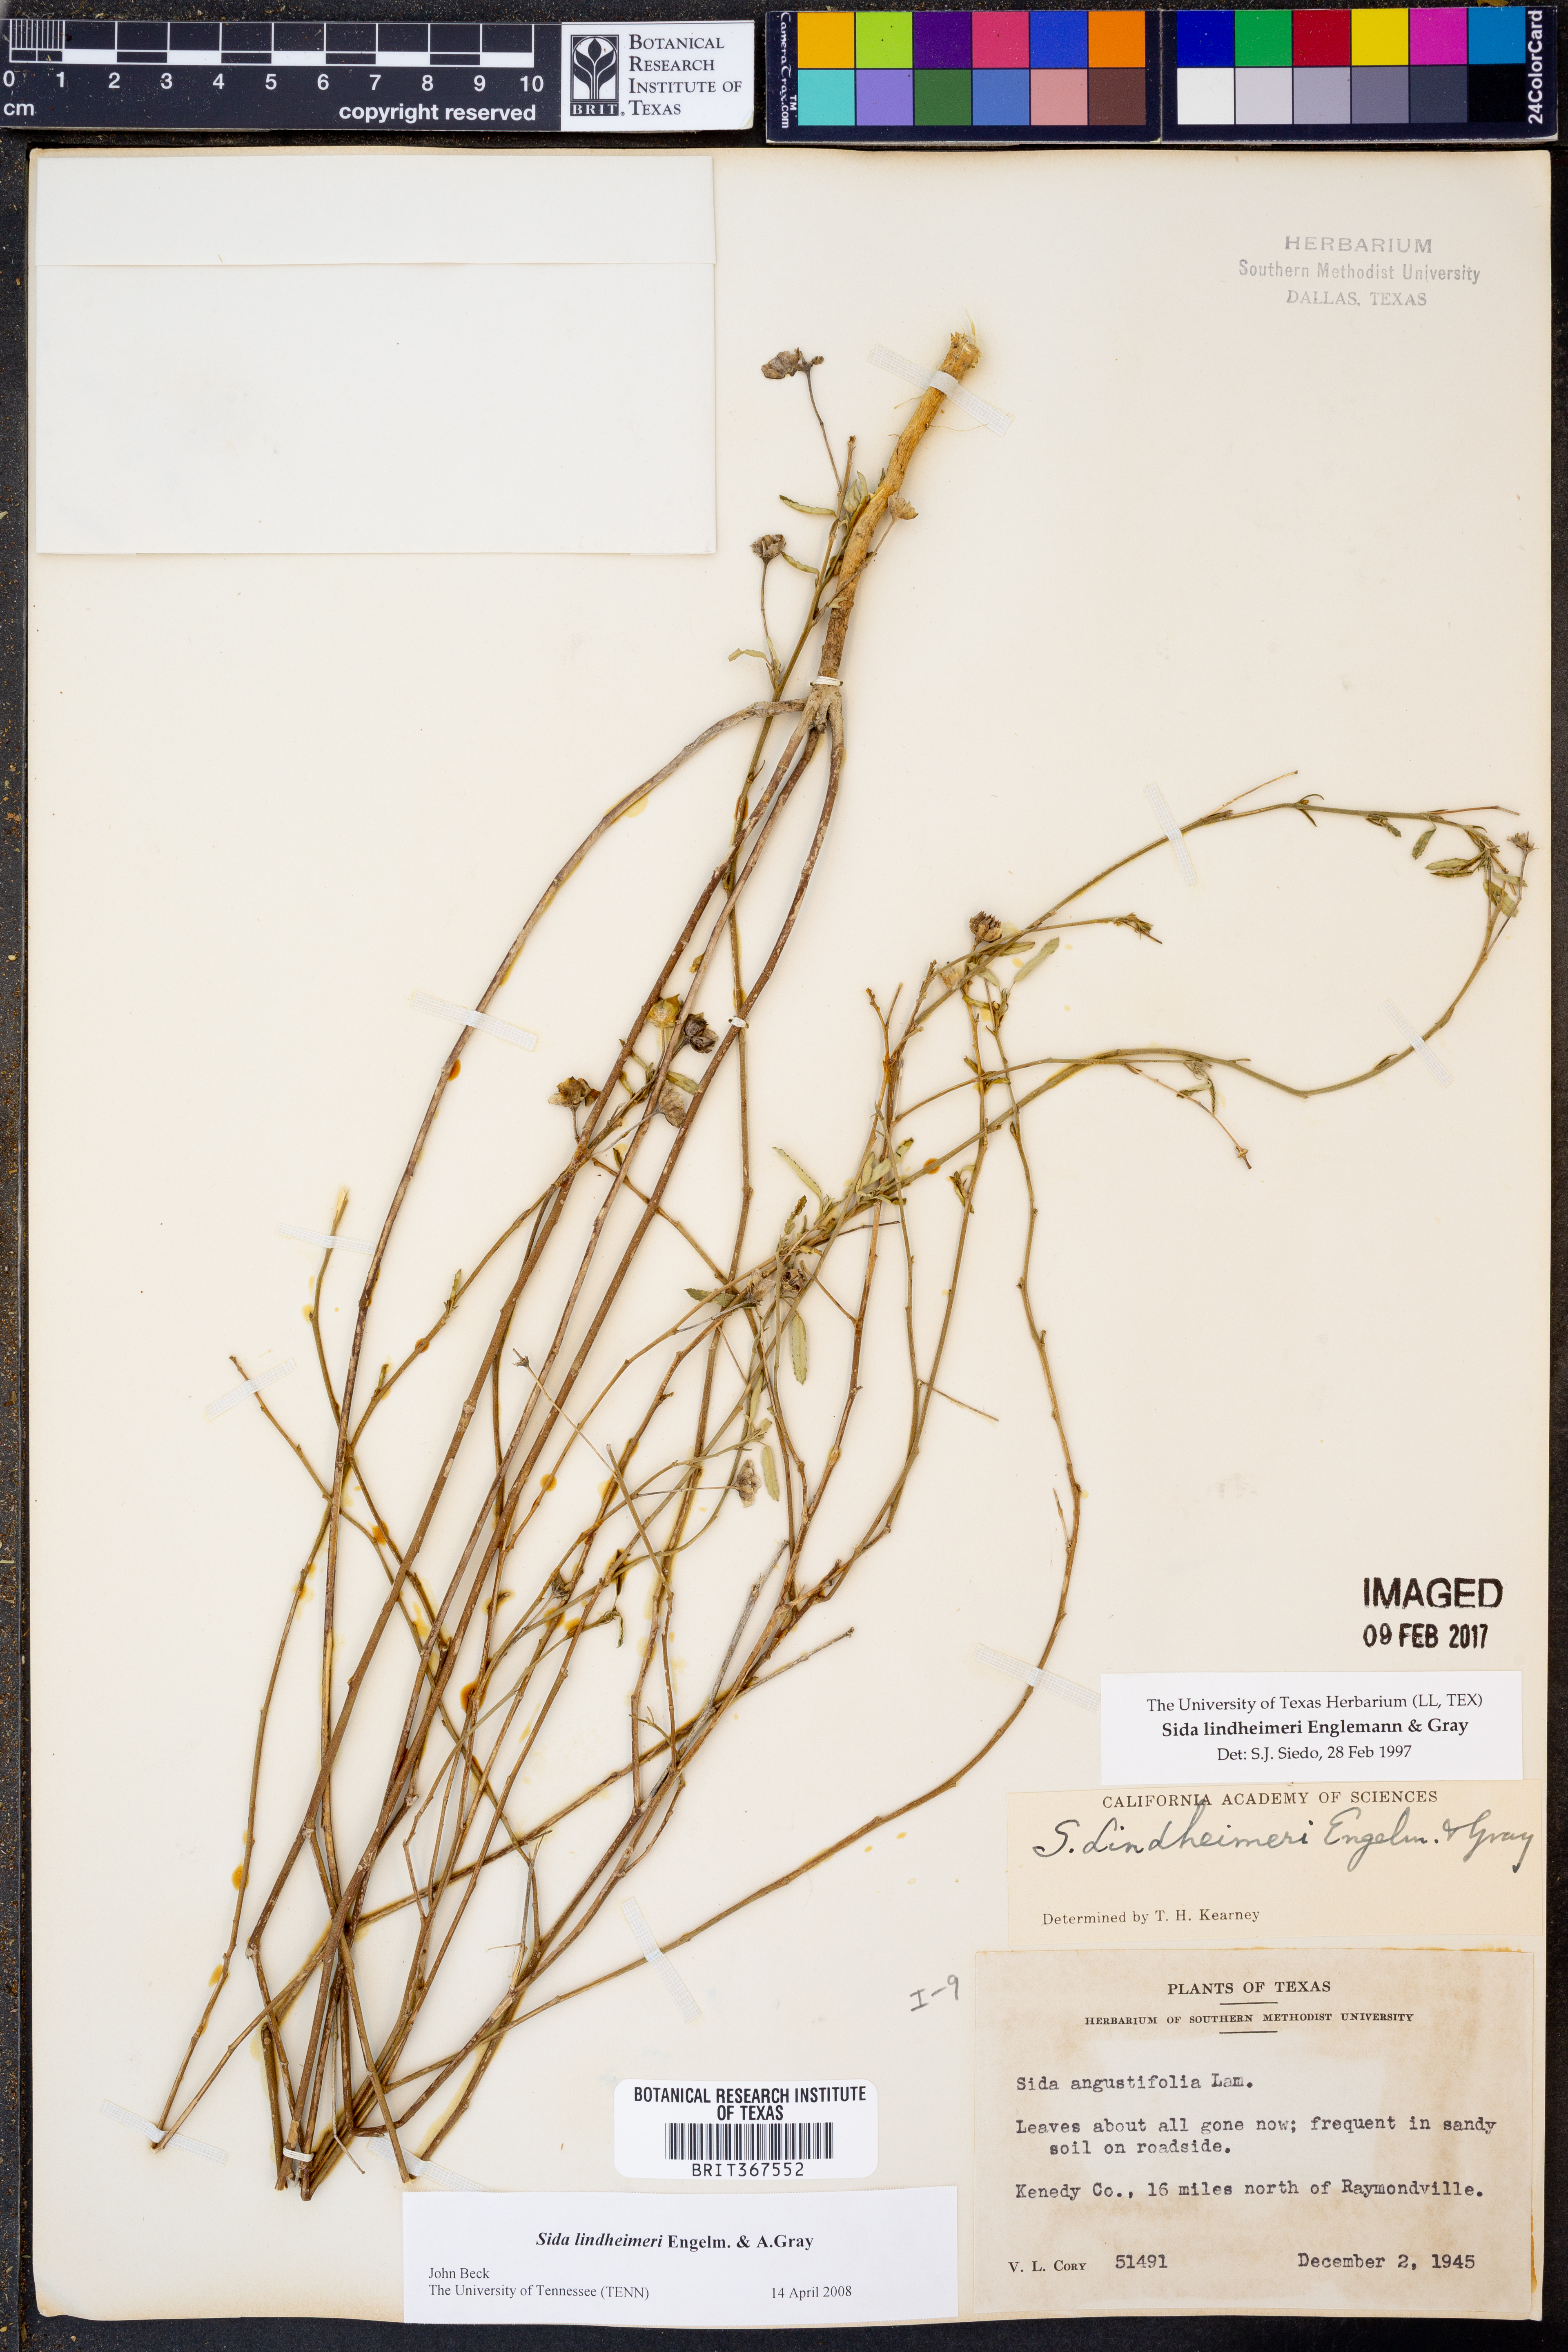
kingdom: Plantae
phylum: Tracheophyta
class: Magnoliopsida
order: Malvales
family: Malvaceae
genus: Sida
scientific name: Sida lindheimeri
